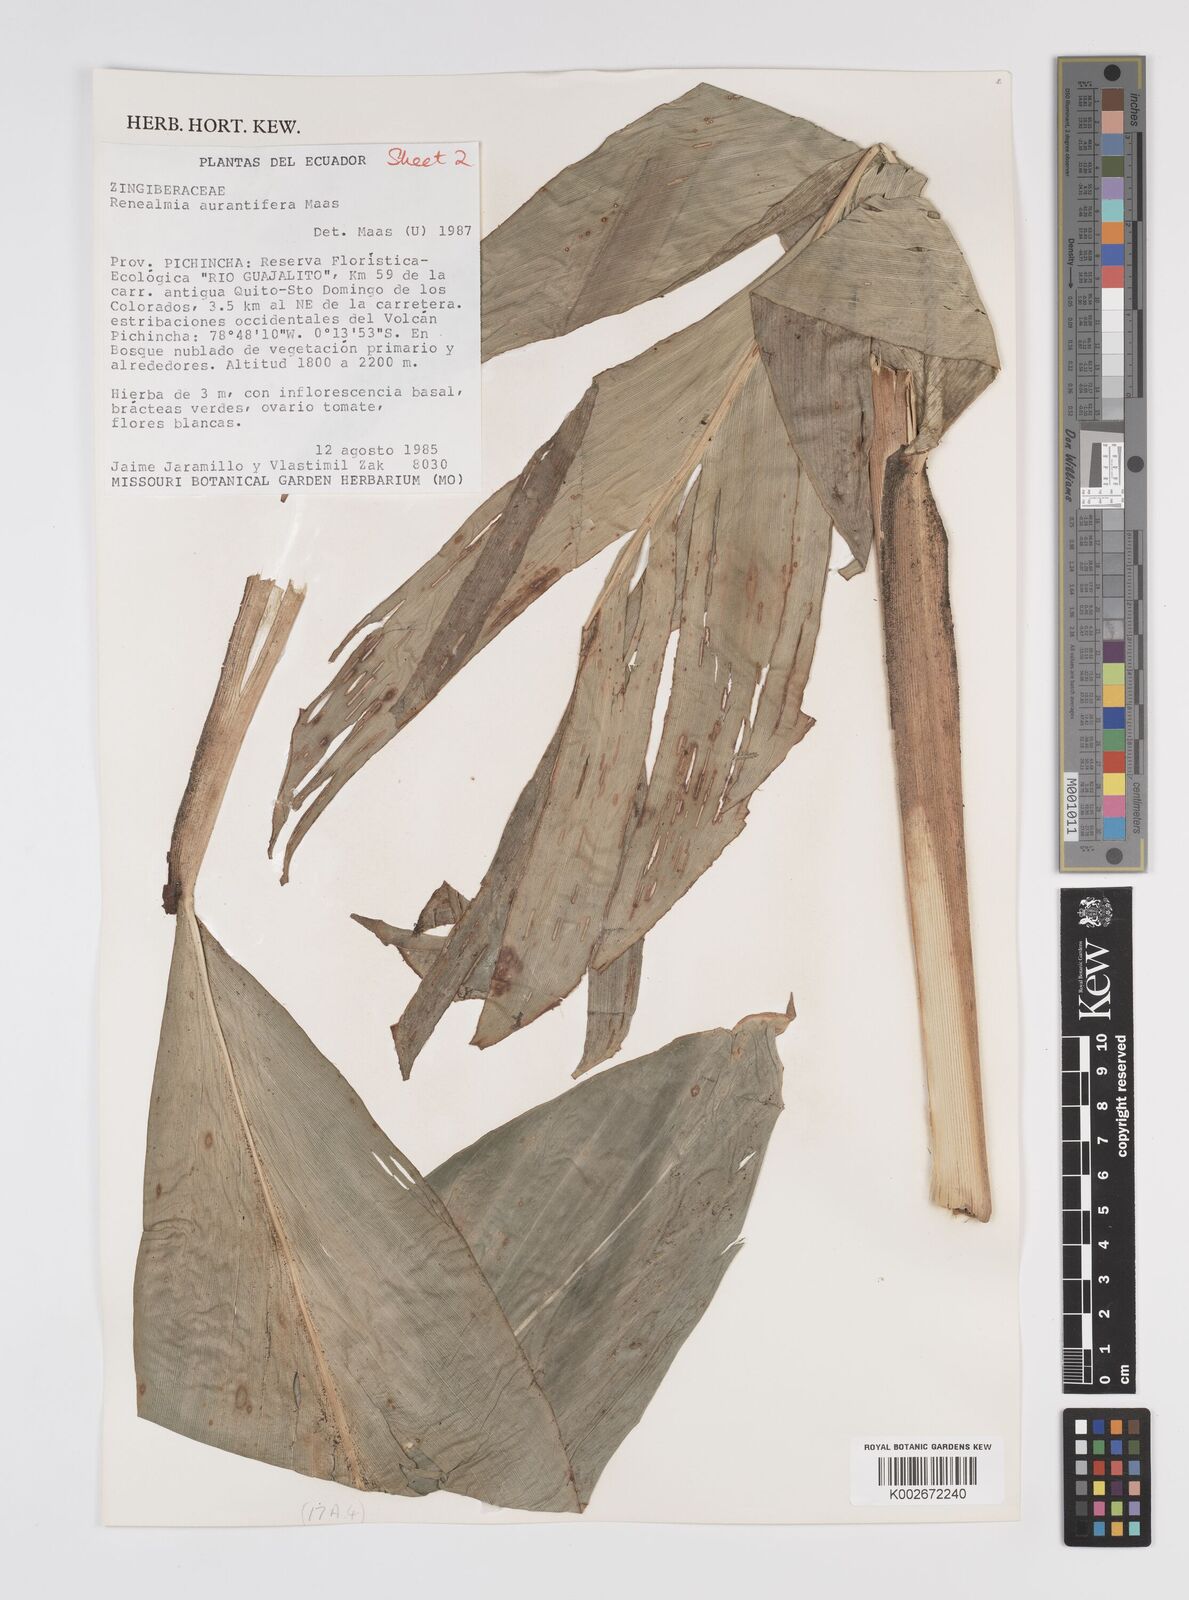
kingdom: Plantae
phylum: Tracheophyta
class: Liliopsida
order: Zingiberales
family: Zingiberaceae
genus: Renealmia
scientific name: Renealmia aurantiifera
